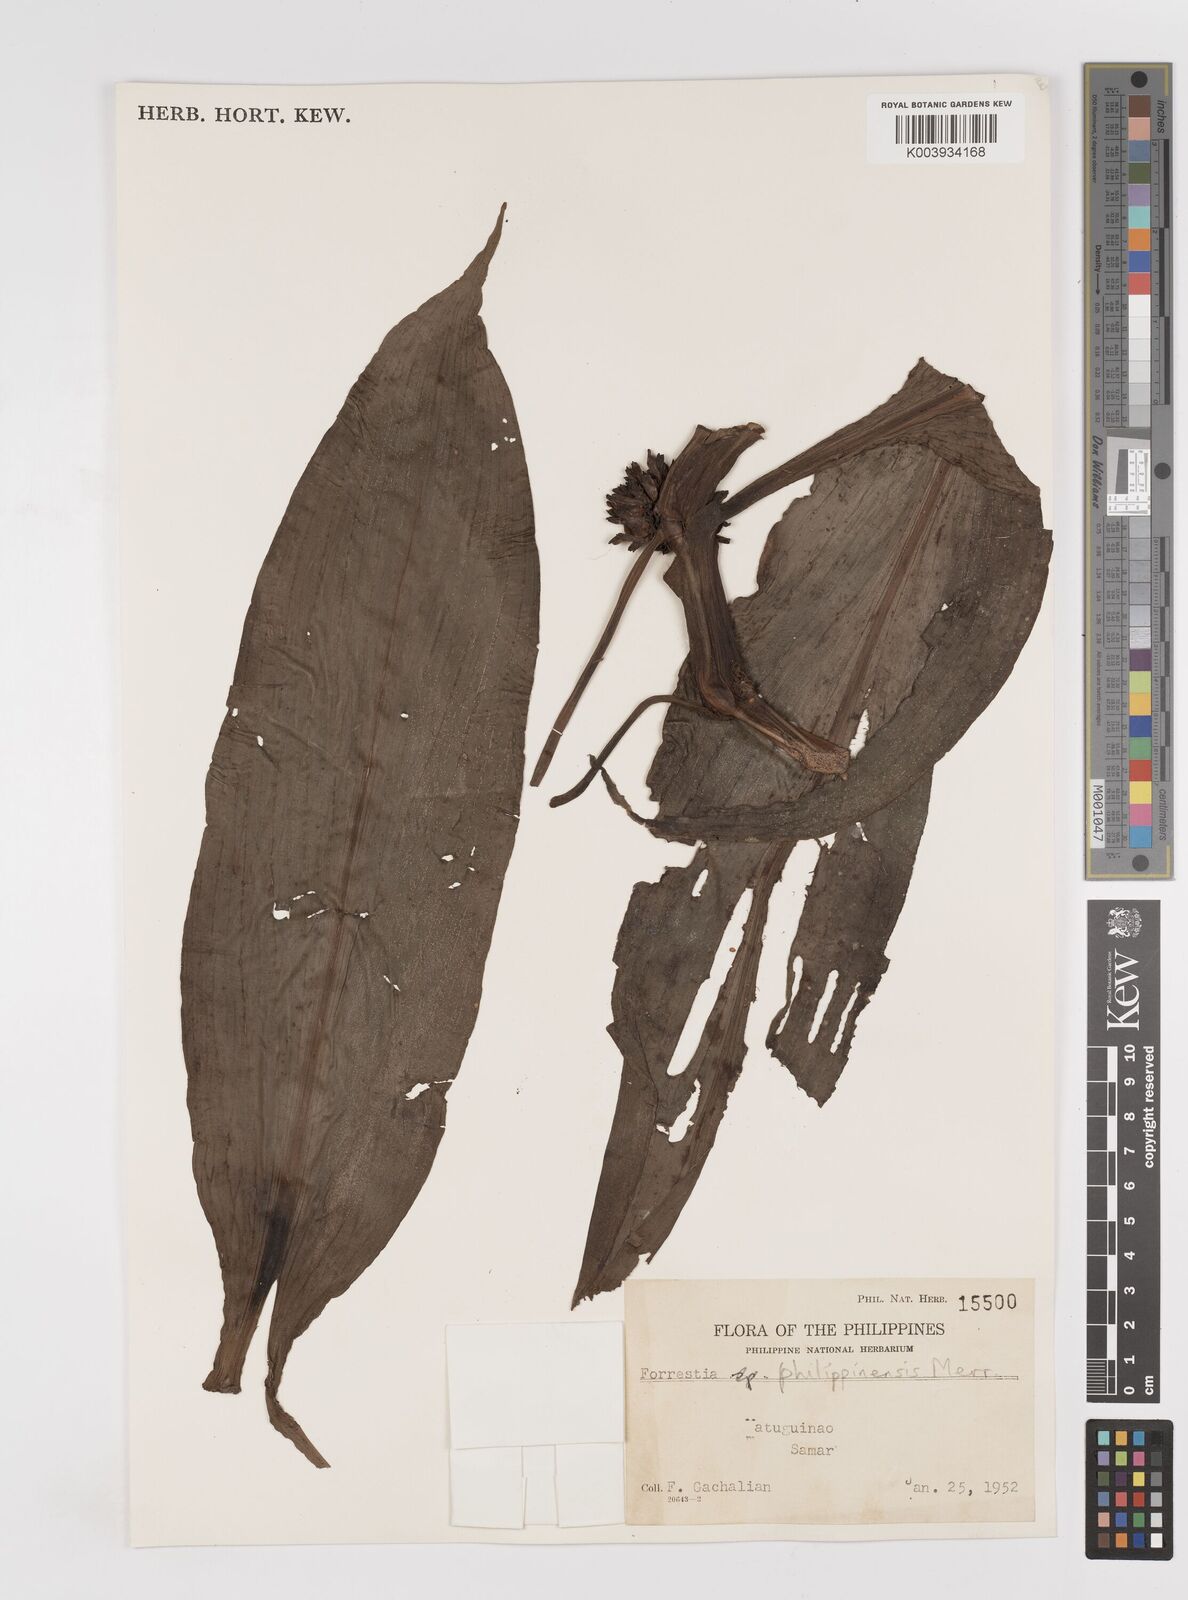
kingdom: Plantae
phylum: Tracheophyta
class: Liliopsida
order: Commelinales
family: Commelinaceae
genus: Amischotolype
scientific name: Amischotolype
